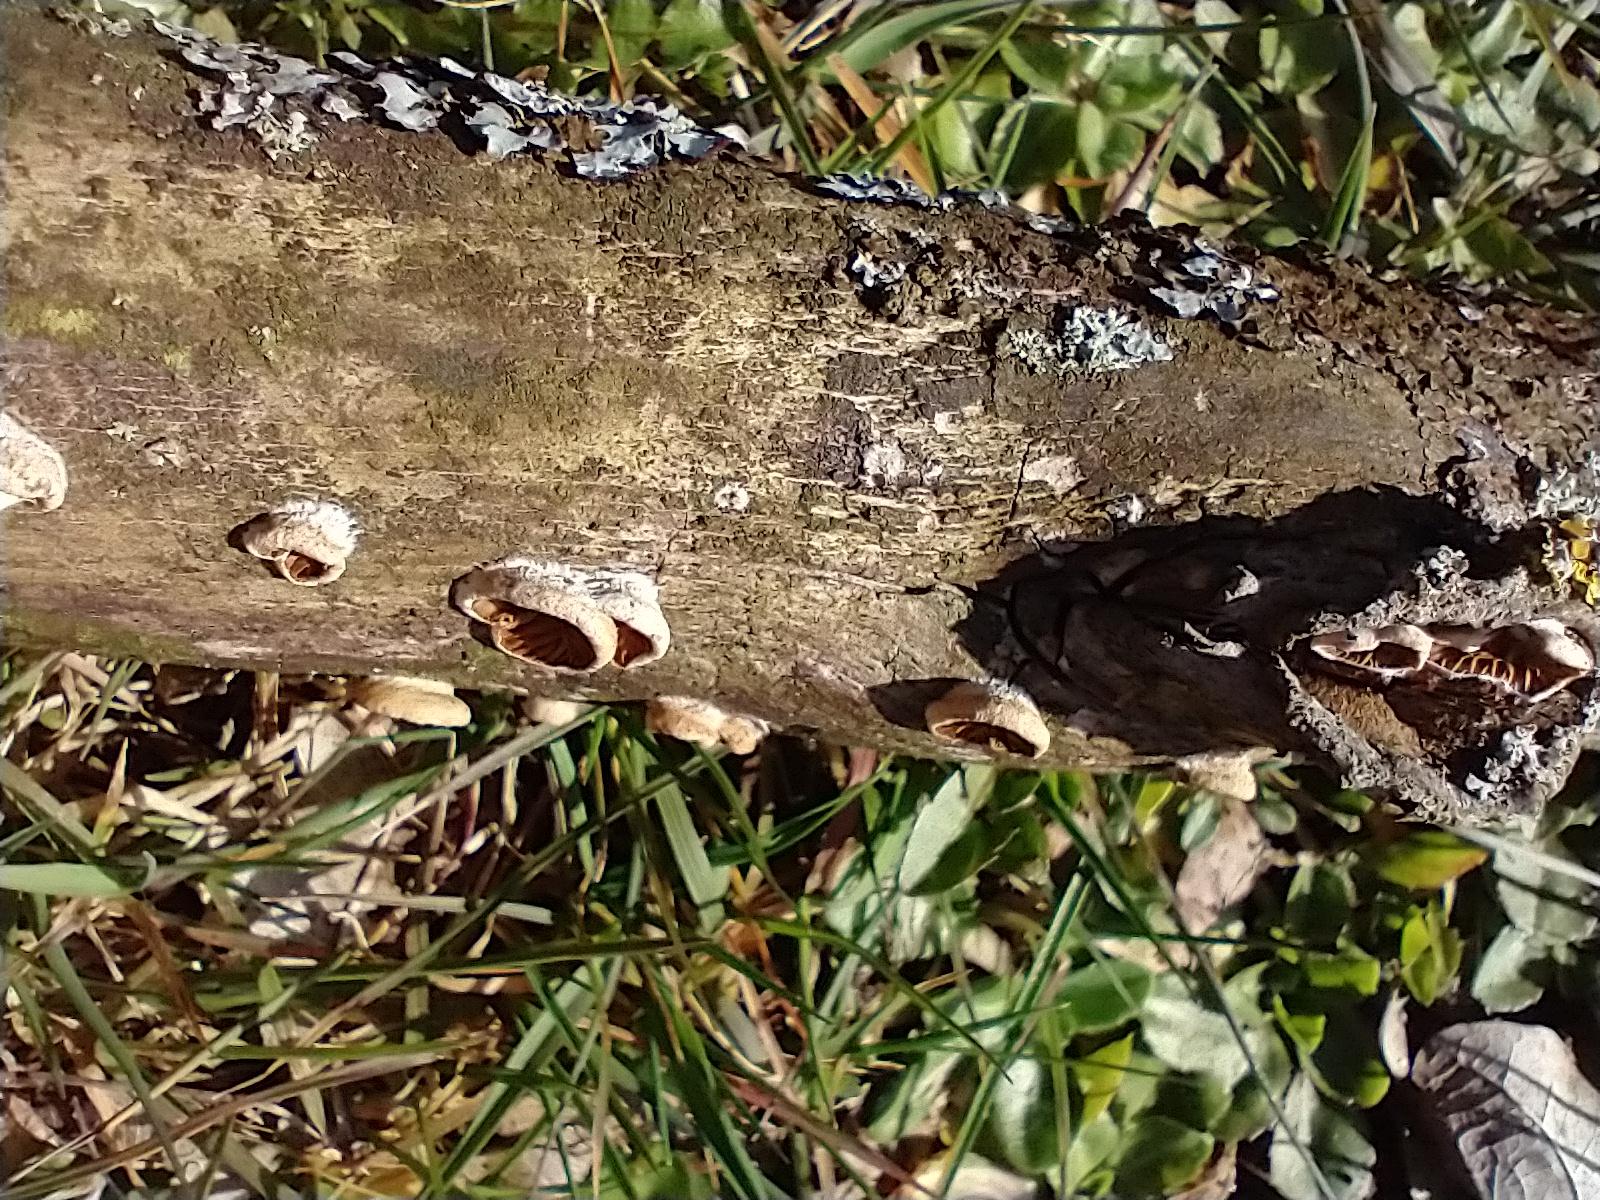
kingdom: Fungi
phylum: Basidiomycota
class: Agaricomycetes
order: Agaricales
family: Crepidotaceae
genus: Crepidotus
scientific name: Crepidotus
